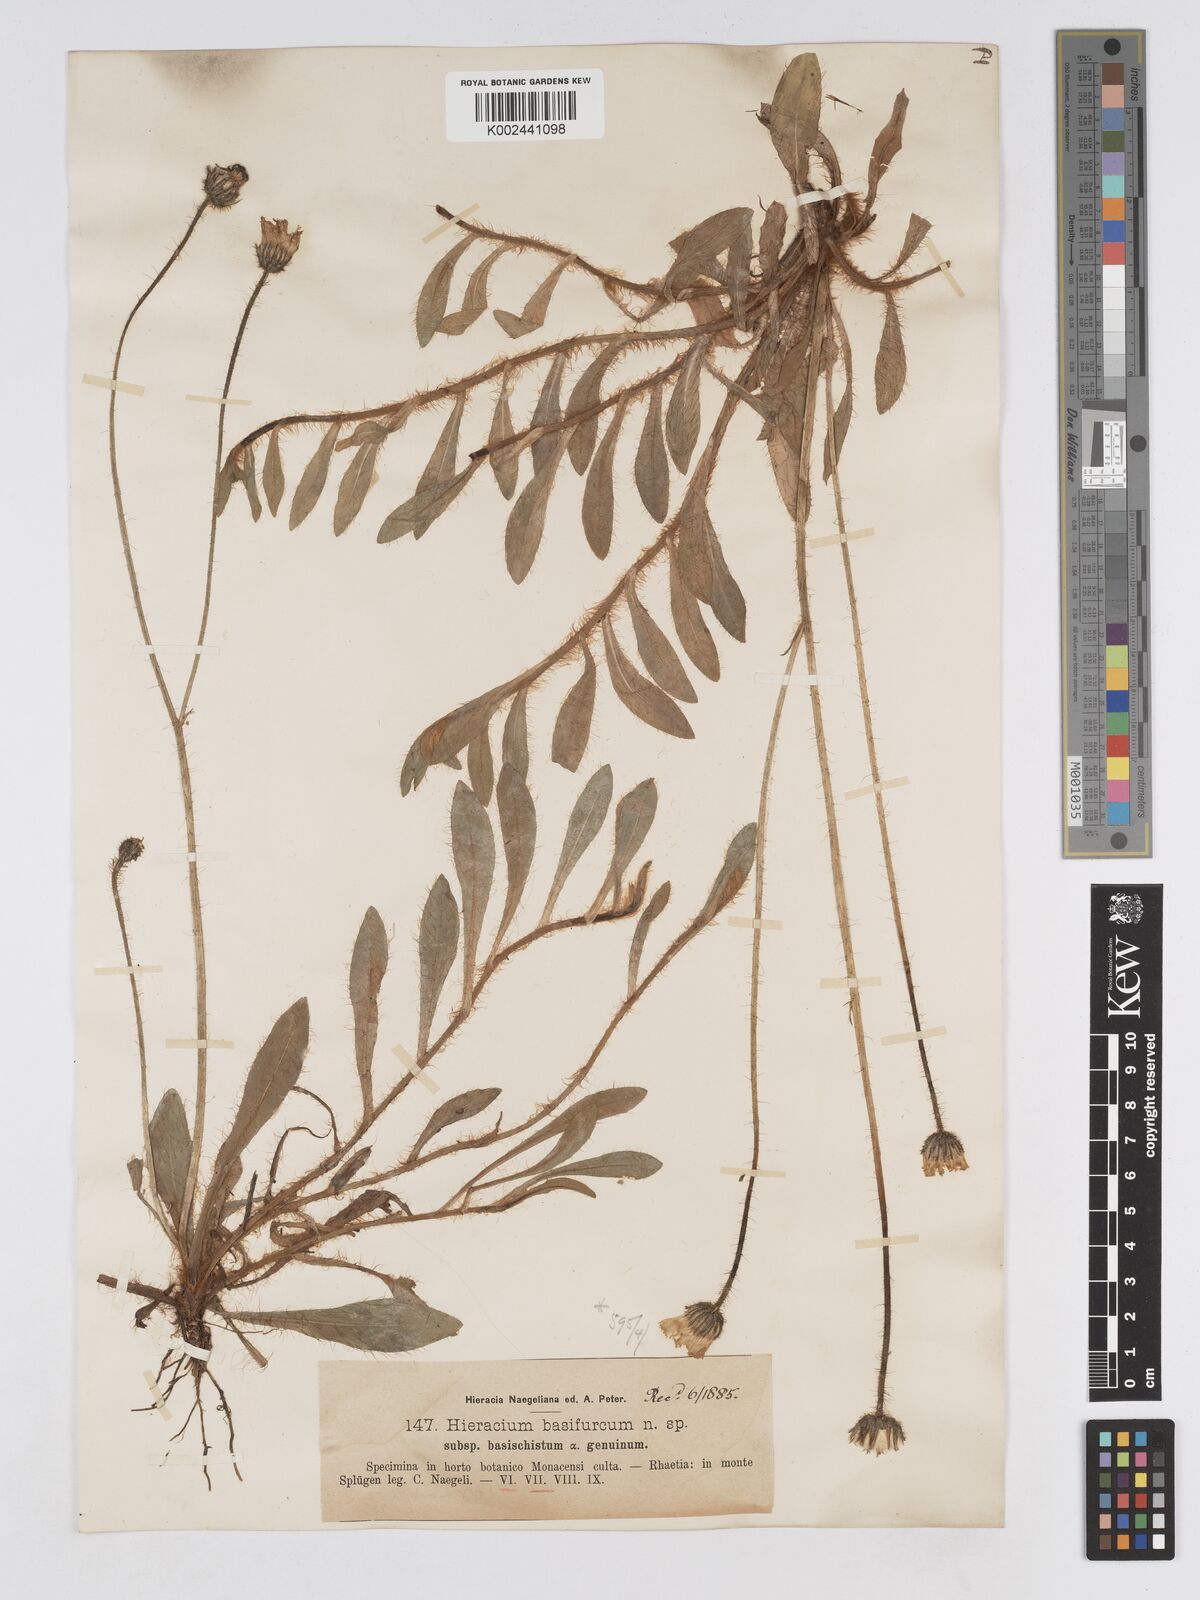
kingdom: Plantae
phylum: Tracheophyta
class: Magnoliopsida
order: Asterales
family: Asteraceae
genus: Pilosella
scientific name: Pilosella basifurca
